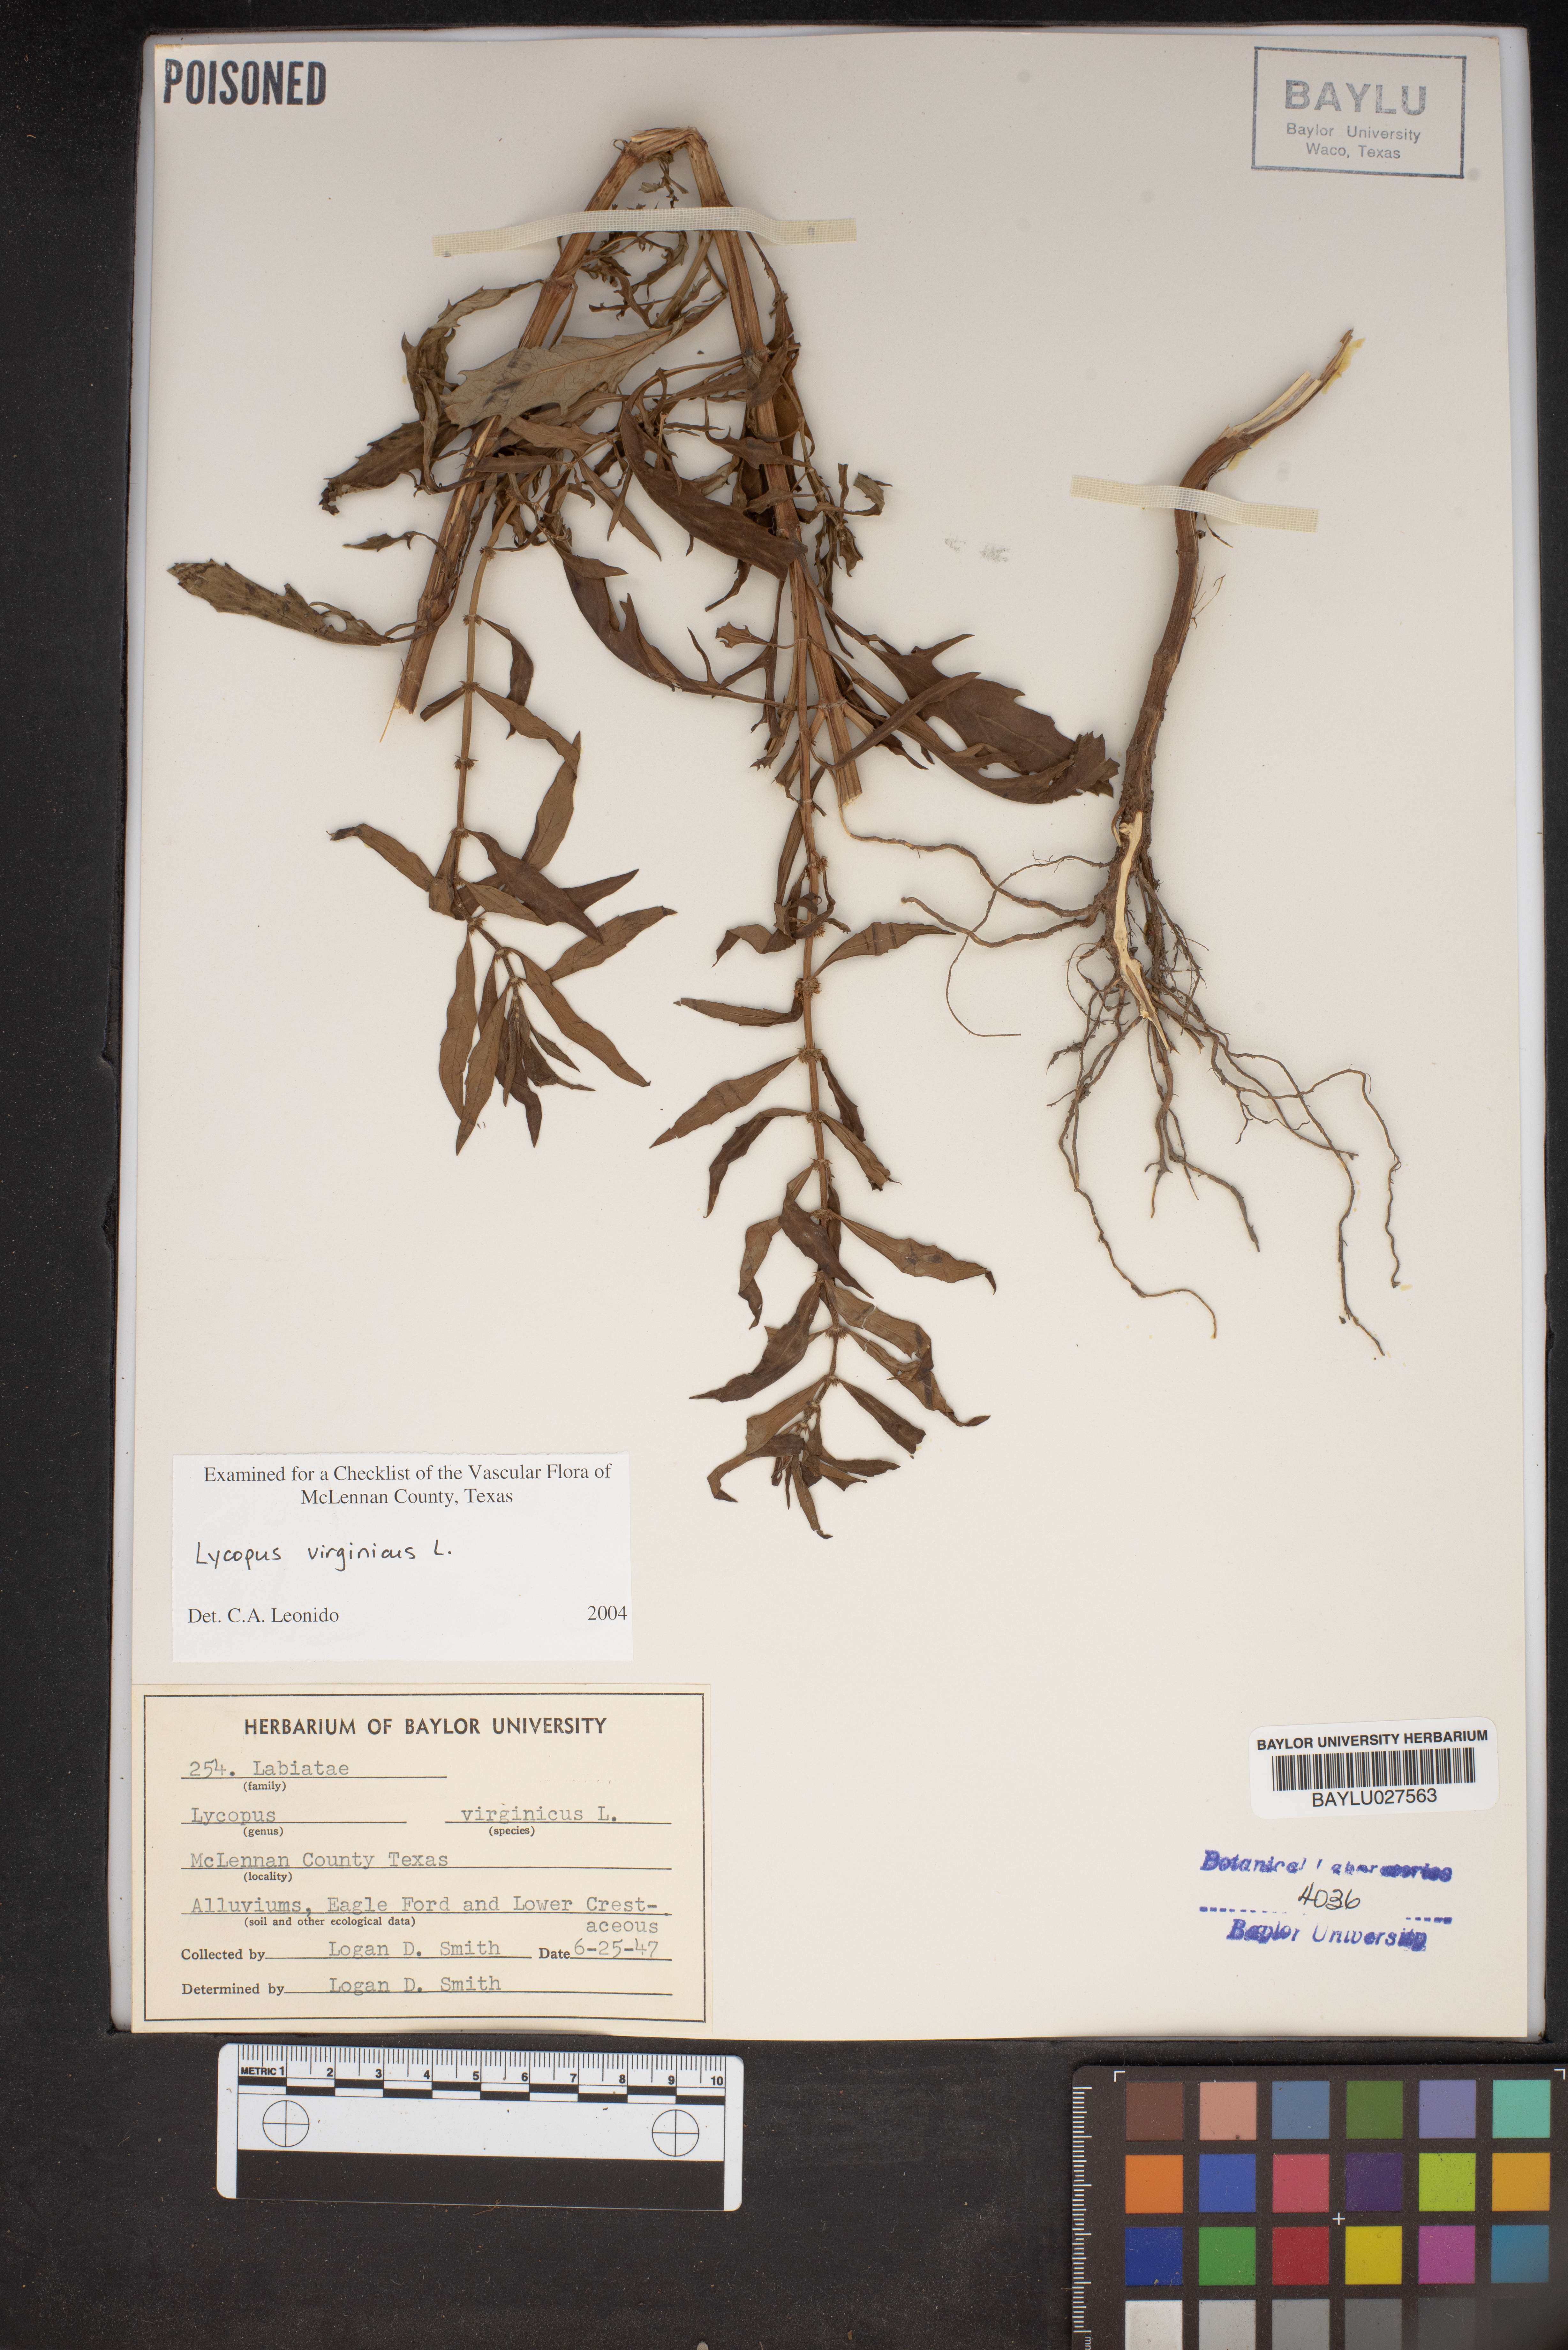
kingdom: Plantae
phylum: Tracheophyta
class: Magnoliopsida
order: Lamiales
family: Lamiaceae
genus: Lycopus
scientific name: Lycopus virginicus
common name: Bugleweed
